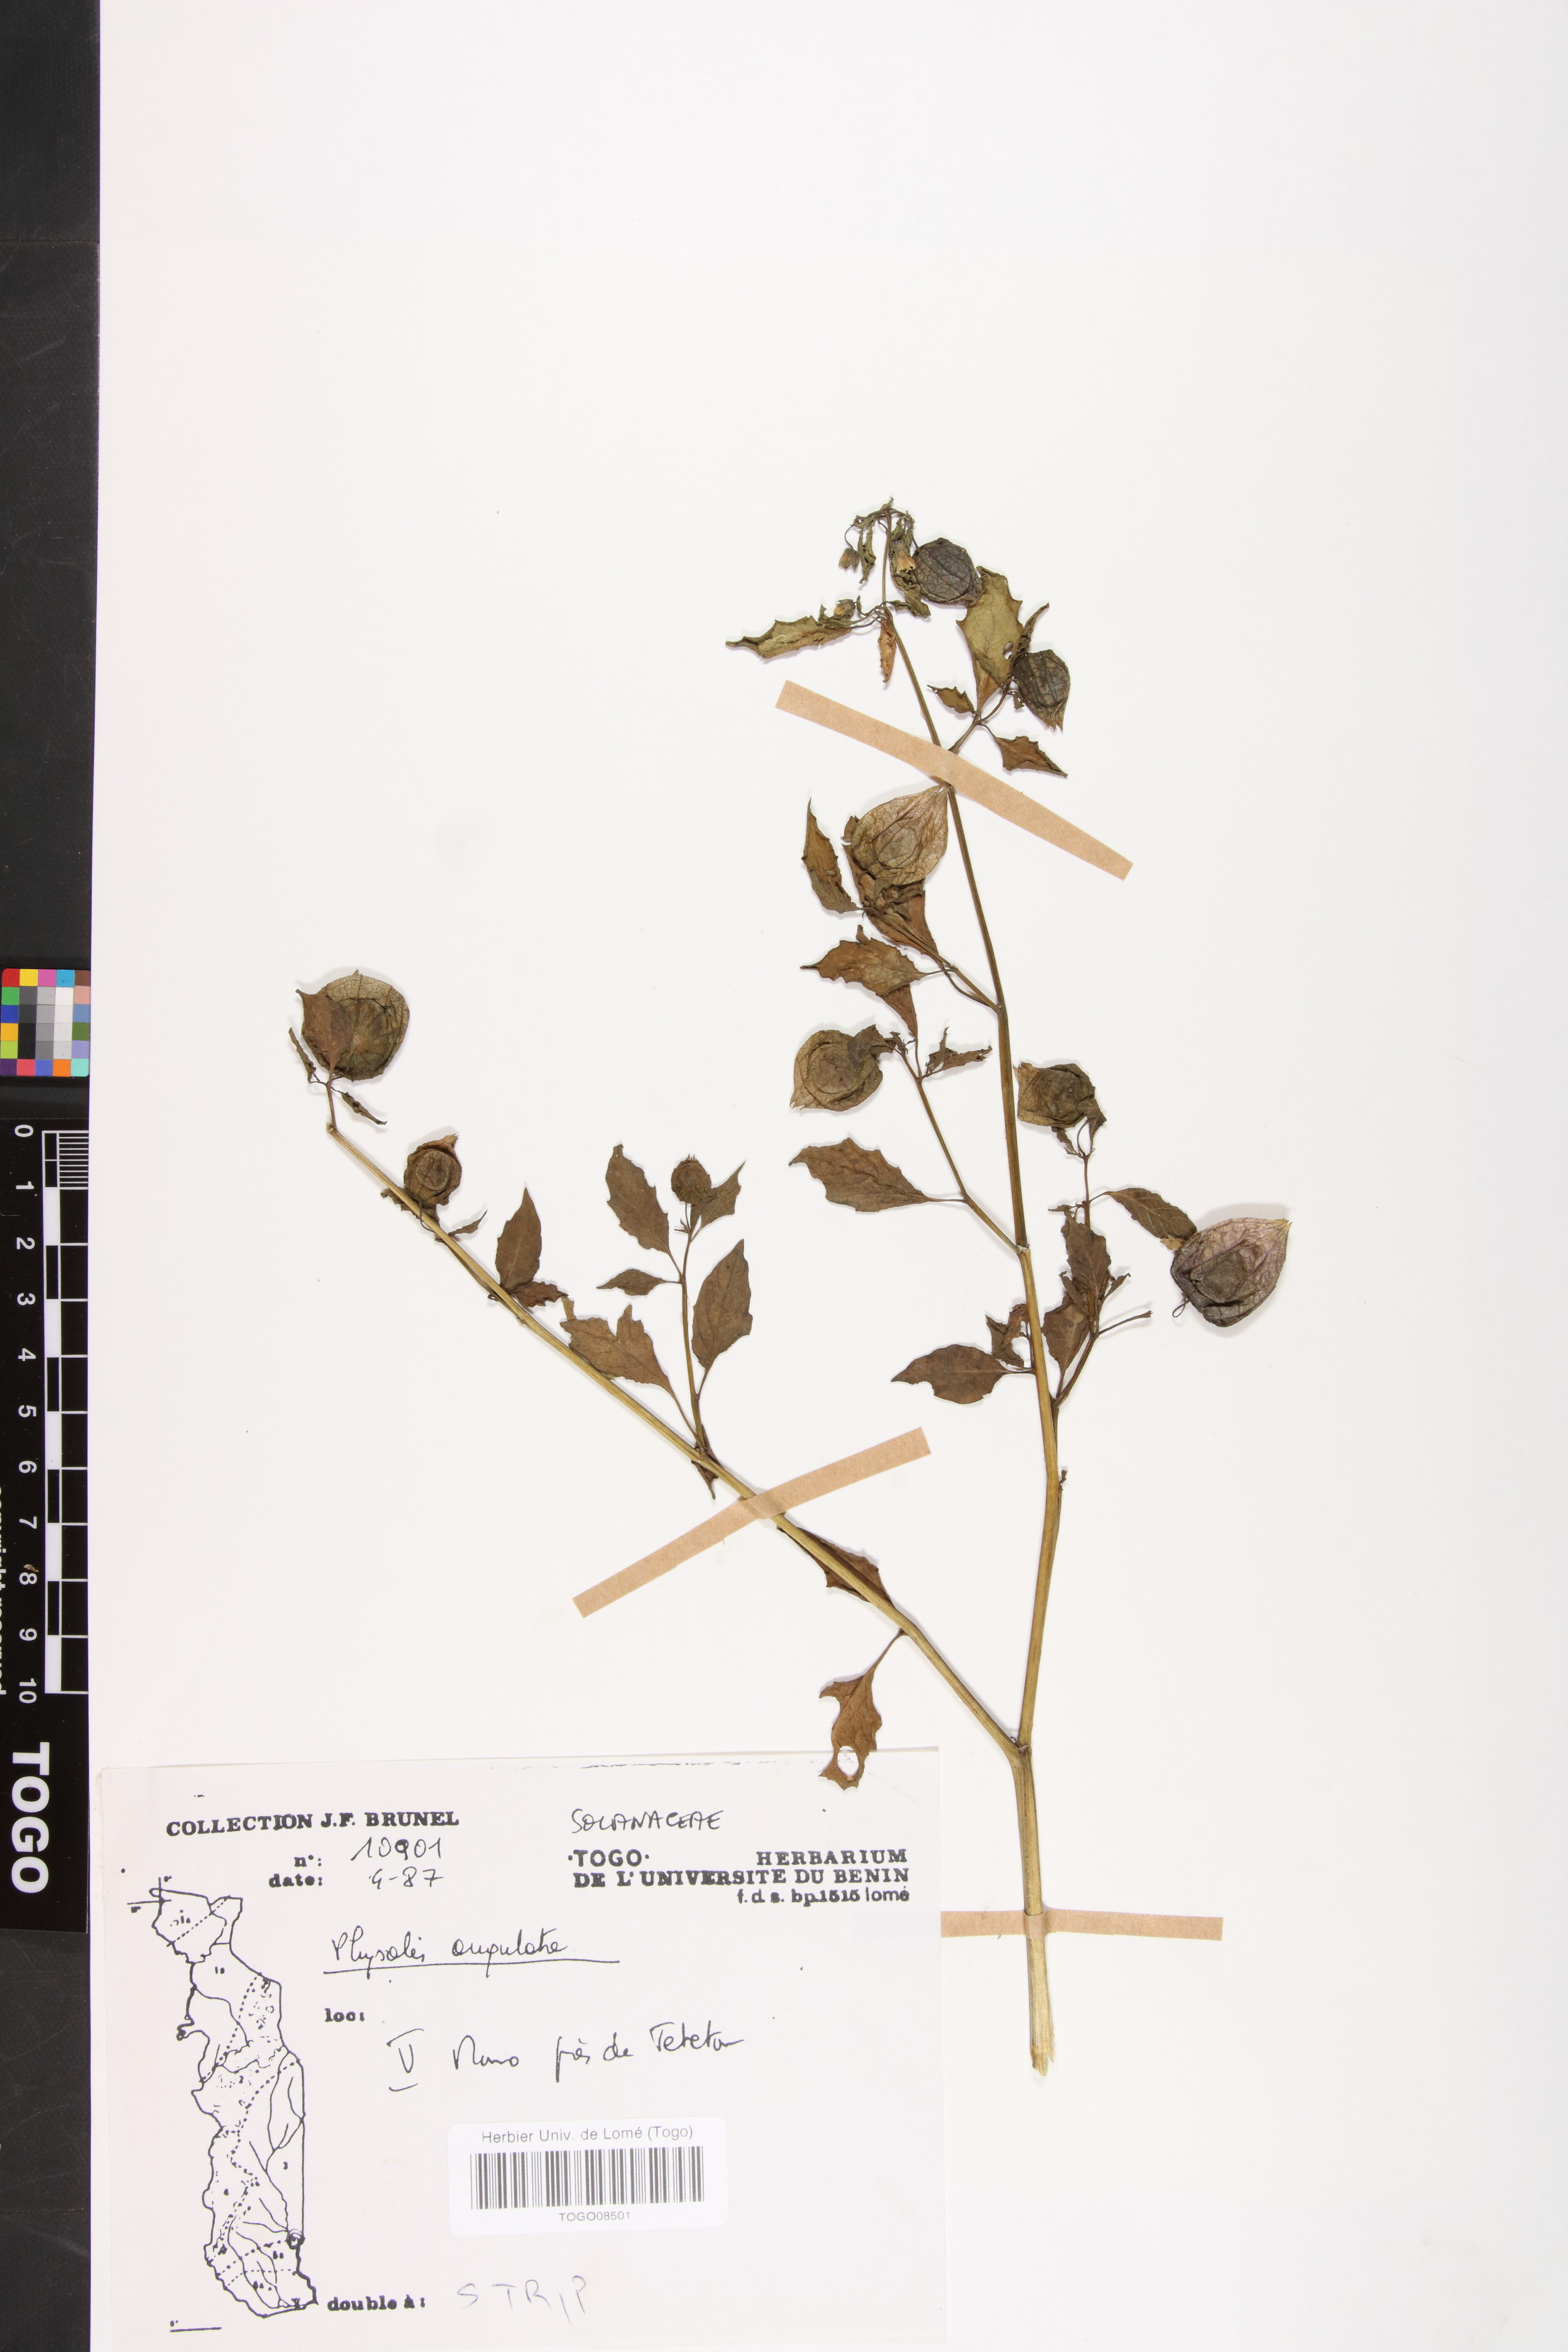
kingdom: Plantae
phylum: Tracheophyta
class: Magnoliopsida
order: Solanales
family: Solanaceae
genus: Physalis
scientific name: Physalis angulata
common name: Angular winter-cherry
